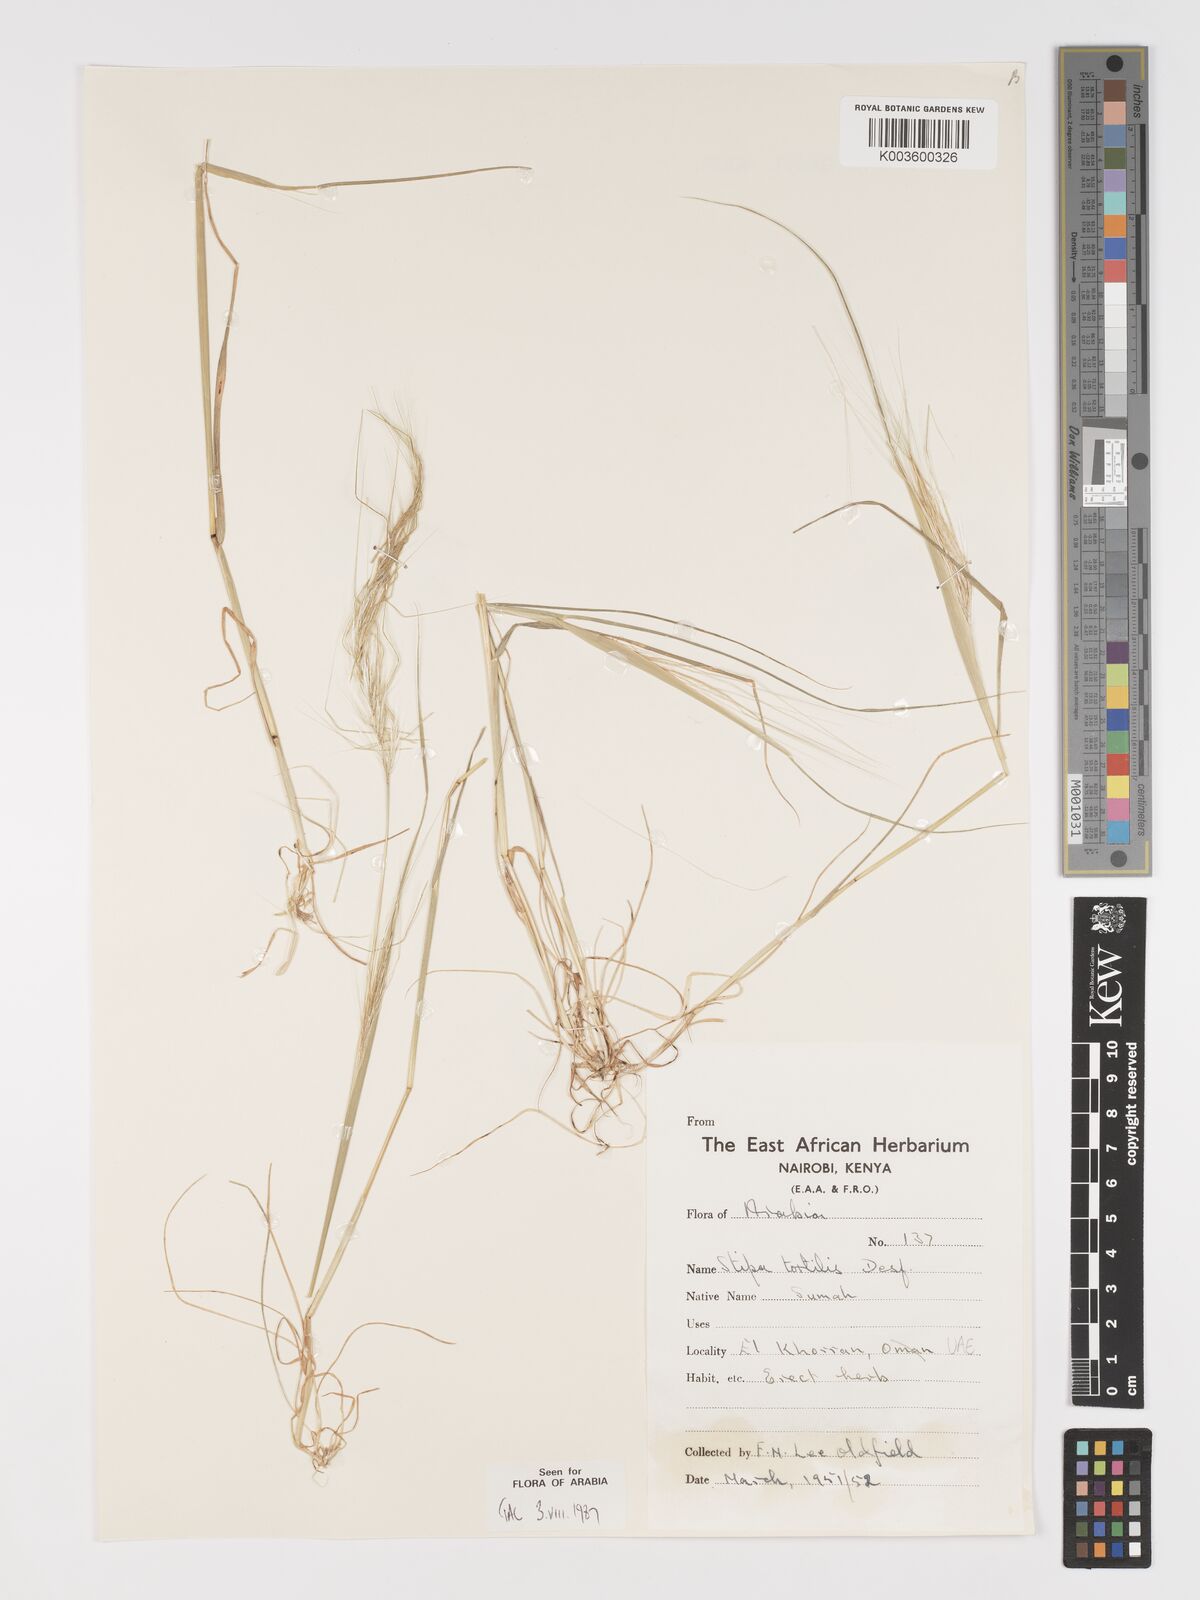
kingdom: Plantae
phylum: Tracheophyta
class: Liliopsida
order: Poales
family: Poaceae
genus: Stipellula
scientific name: Stipellula capensis
